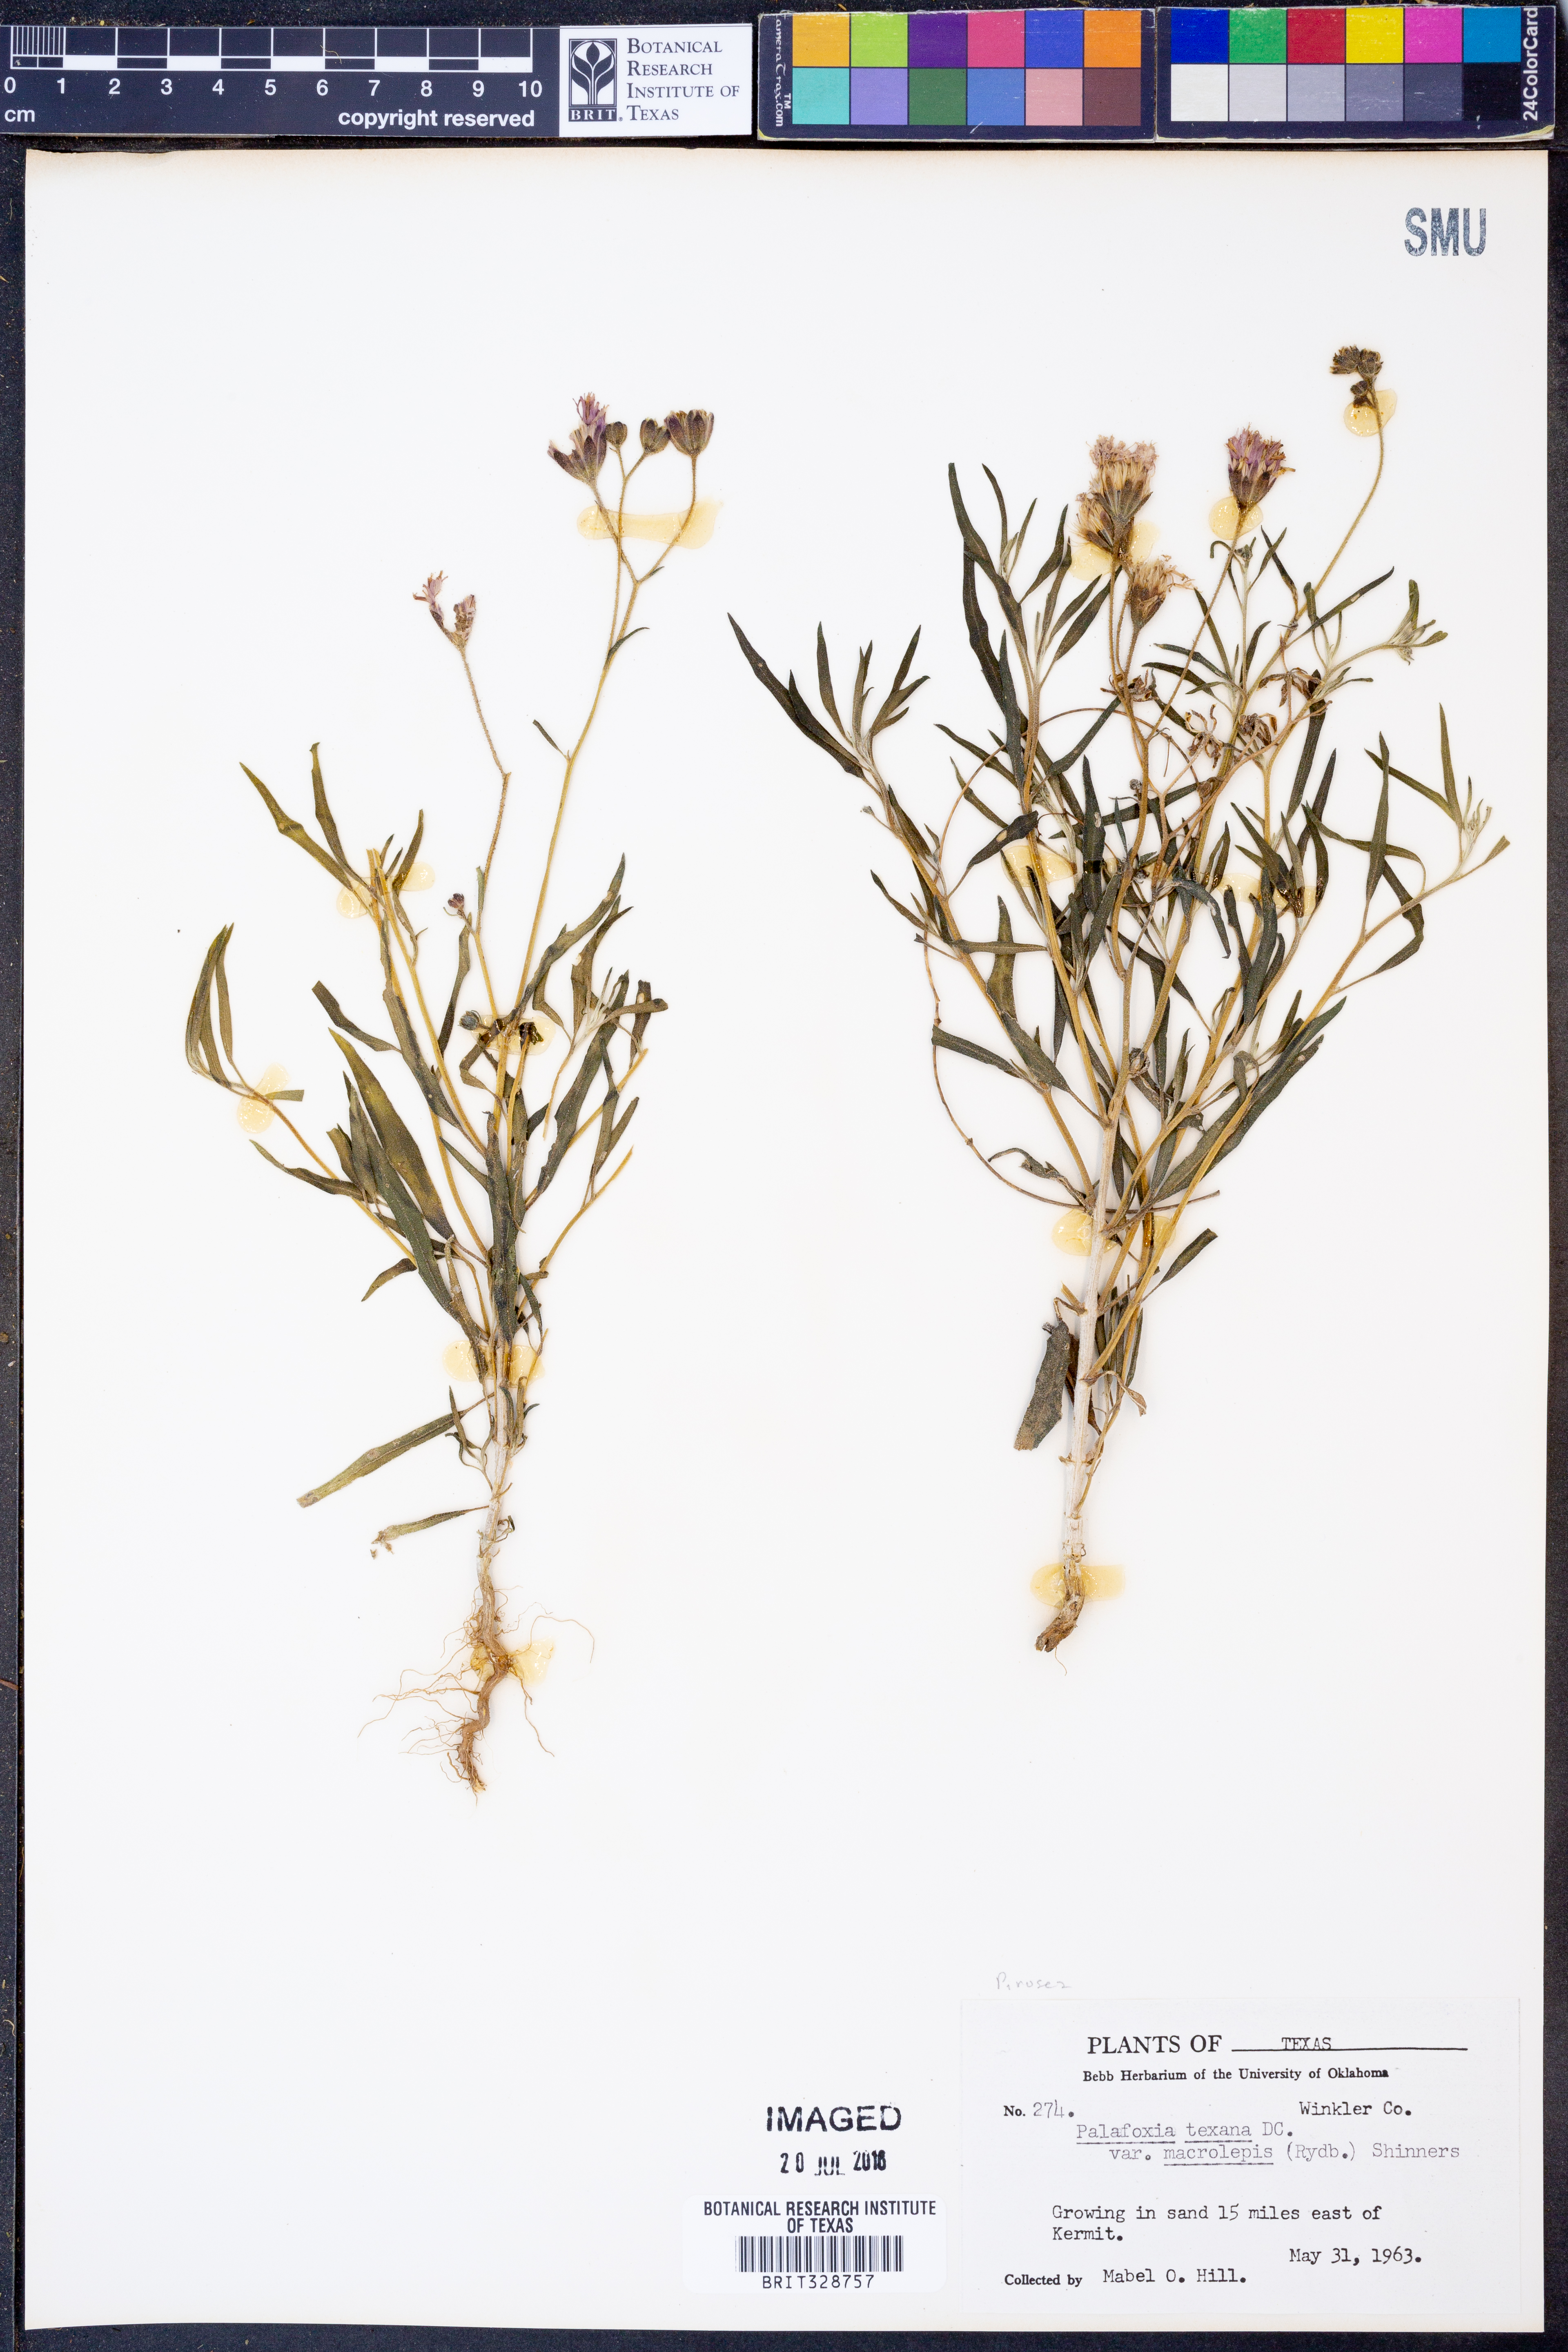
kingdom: Plantae
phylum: Tracheophyta
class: Magnoliopsida
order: Asterales
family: Asteraceae
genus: Palafoxia
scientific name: Palafoxia rosea
